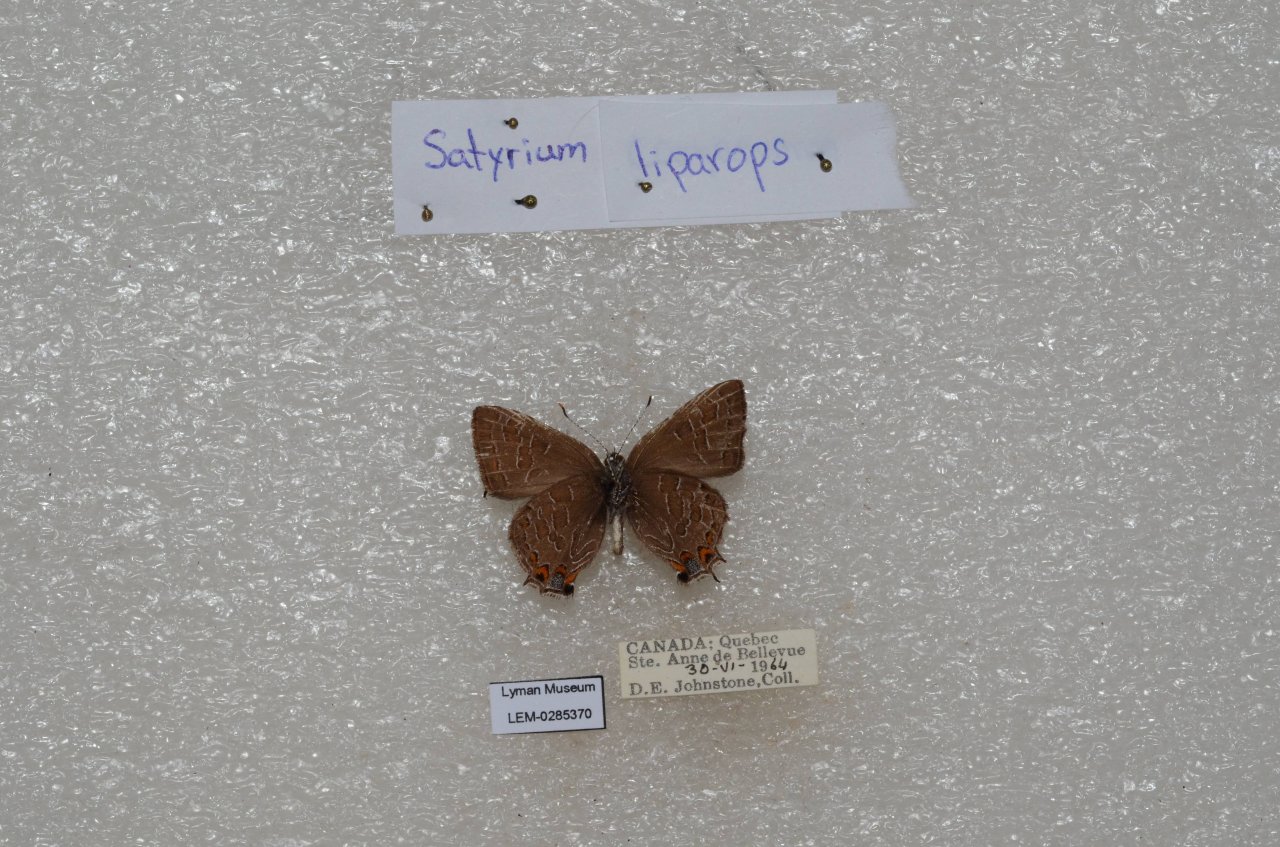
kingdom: Animalia
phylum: Arthropoda
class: Insecta
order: Lepidoptera
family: Lycaenidae
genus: Satyrium
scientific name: Satyrium liparops
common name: Striped Hairstreak
